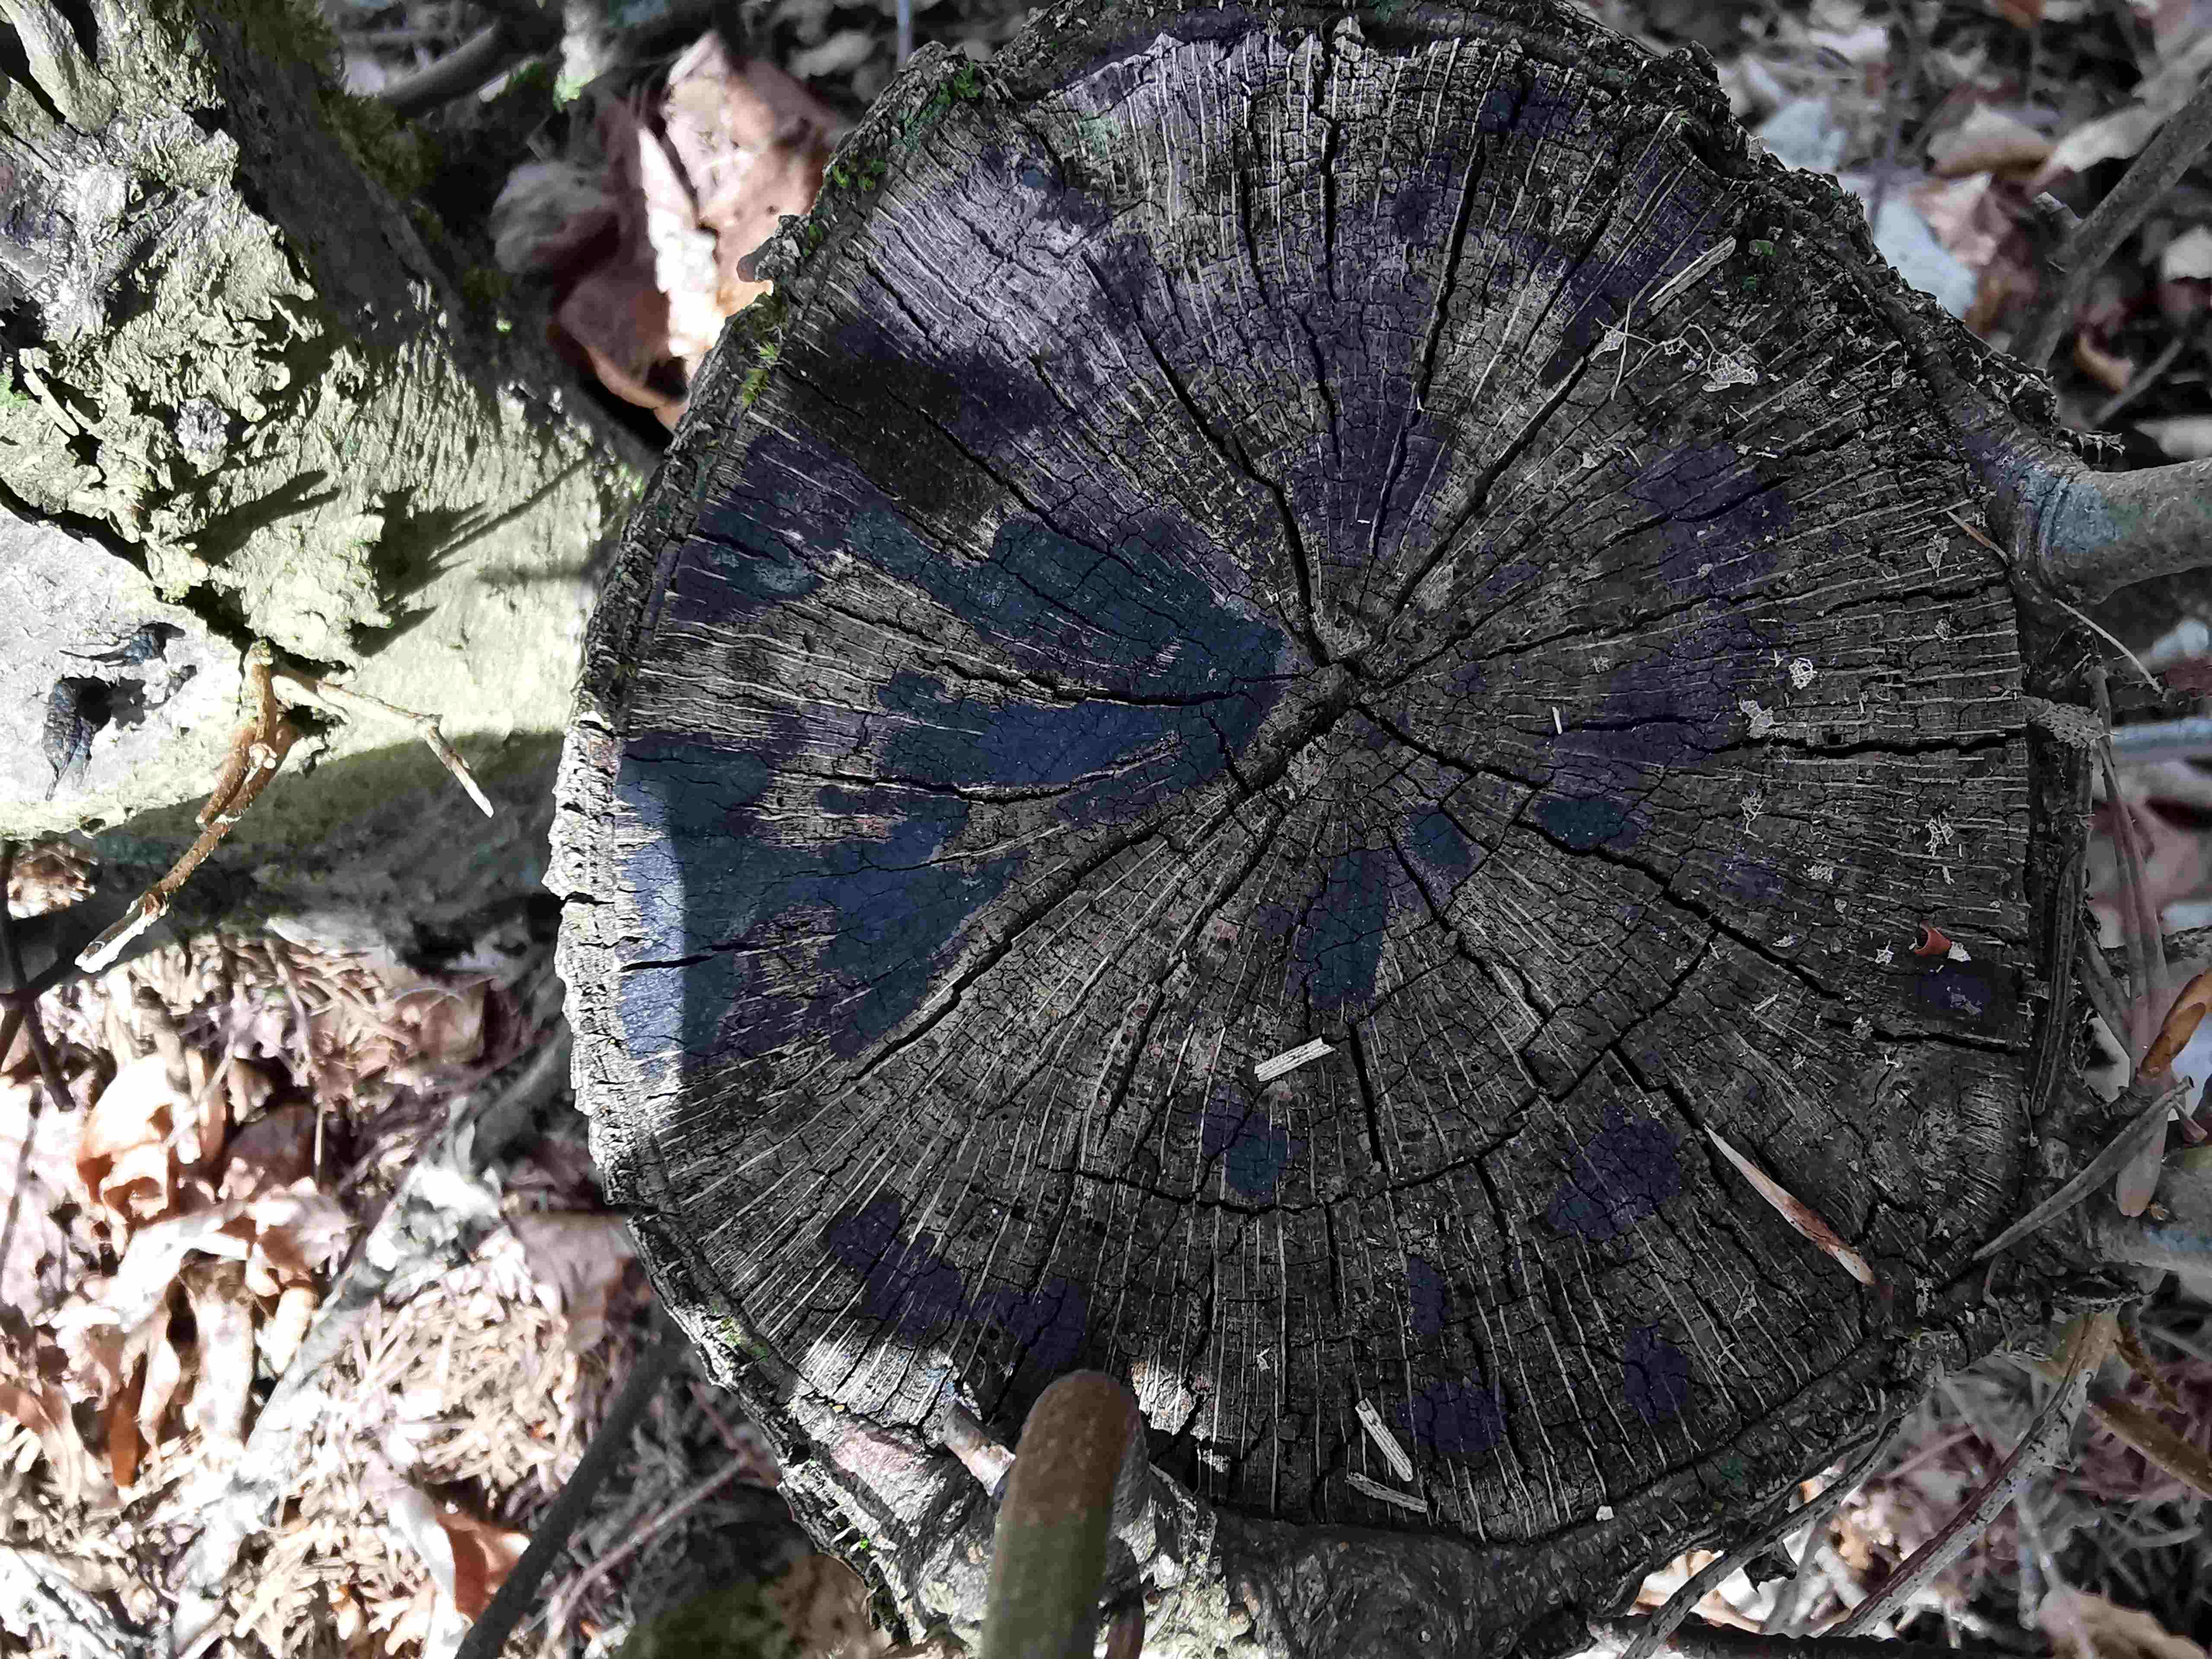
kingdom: Fungi
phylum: Ascomycota
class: Leotiomycetes
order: Helotiales
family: Helotiaceae
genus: Bispora
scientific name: Bispora pallescens
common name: måtte-snitskive
